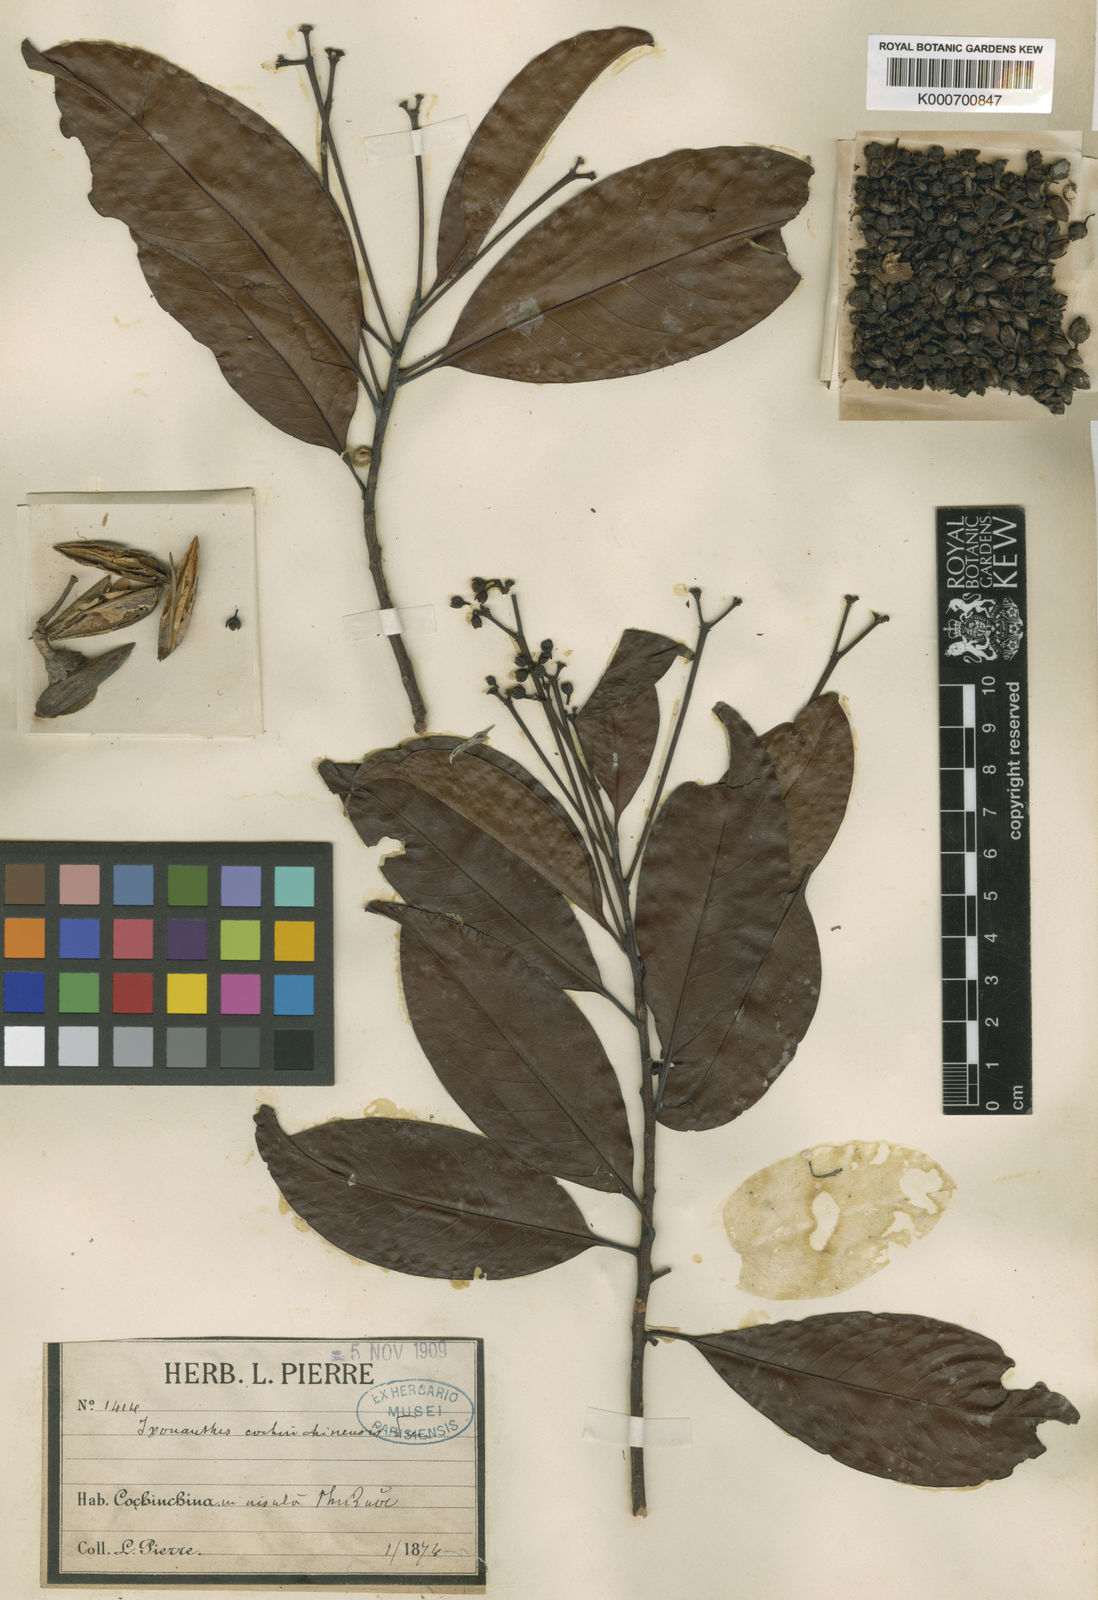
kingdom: Plantae
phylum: Tracheophyta
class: Magnoliopsida
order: Malpighiales
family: Ixonanthaceae
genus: Ixonanthes
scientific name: Ixonanthes reticulata
